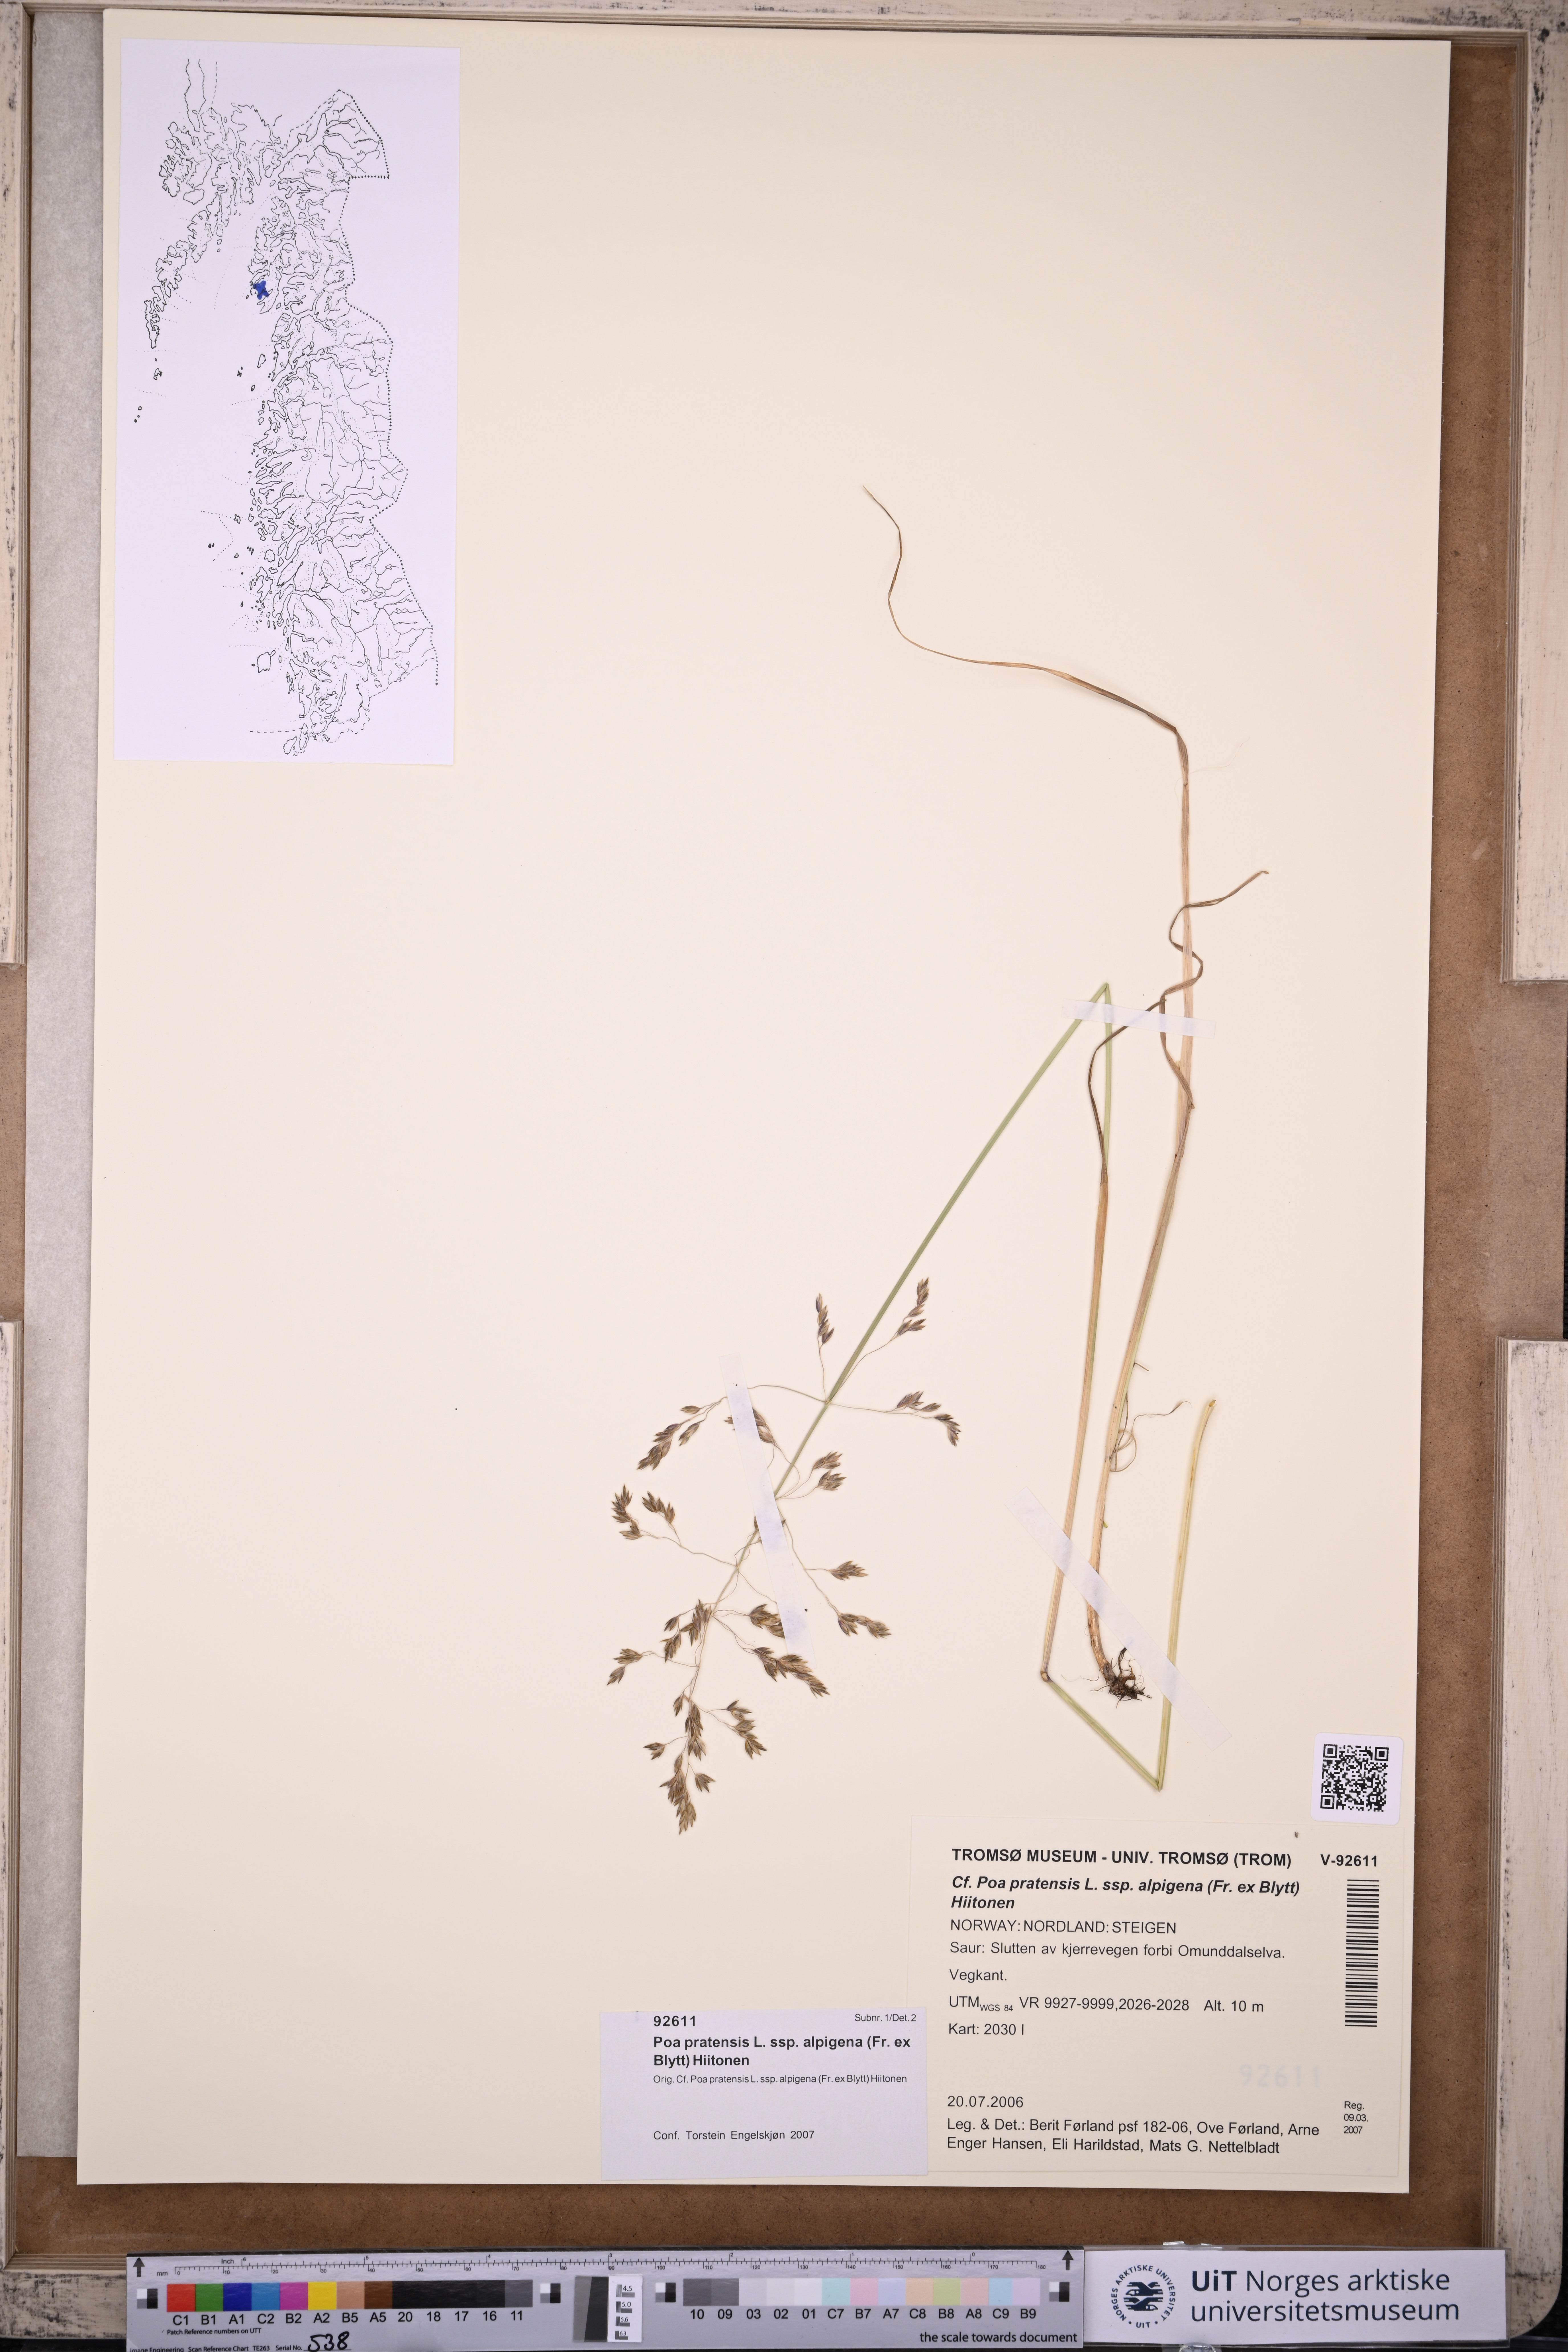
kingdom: Plantae
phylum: Tracheophyta
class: Liliopsida
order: Poales
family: Poaceae
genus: Poa
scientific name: Poa alpigena
